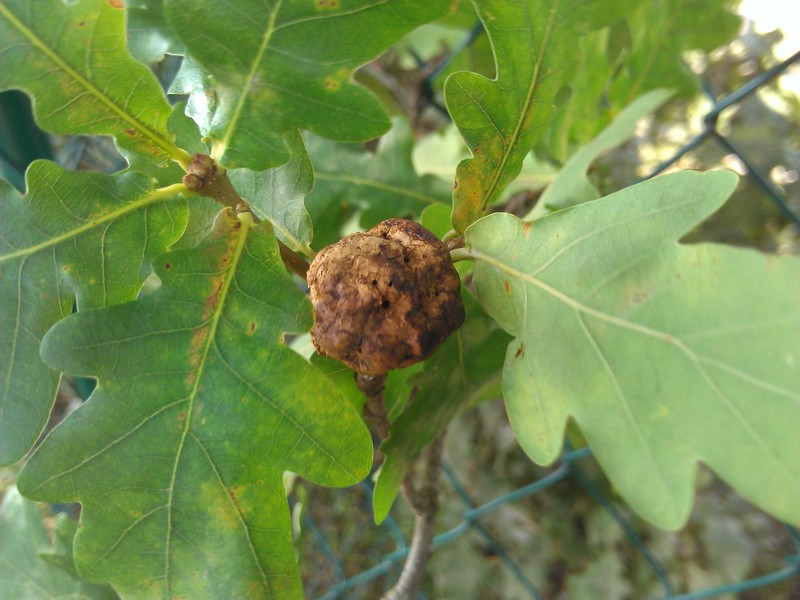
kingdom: Animalia
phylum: Arthropoda
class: Insecta
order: Hymenoptera
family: Cynipidae
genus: Biorhiza
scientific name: Biorhiza pallida
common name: Oak apple
